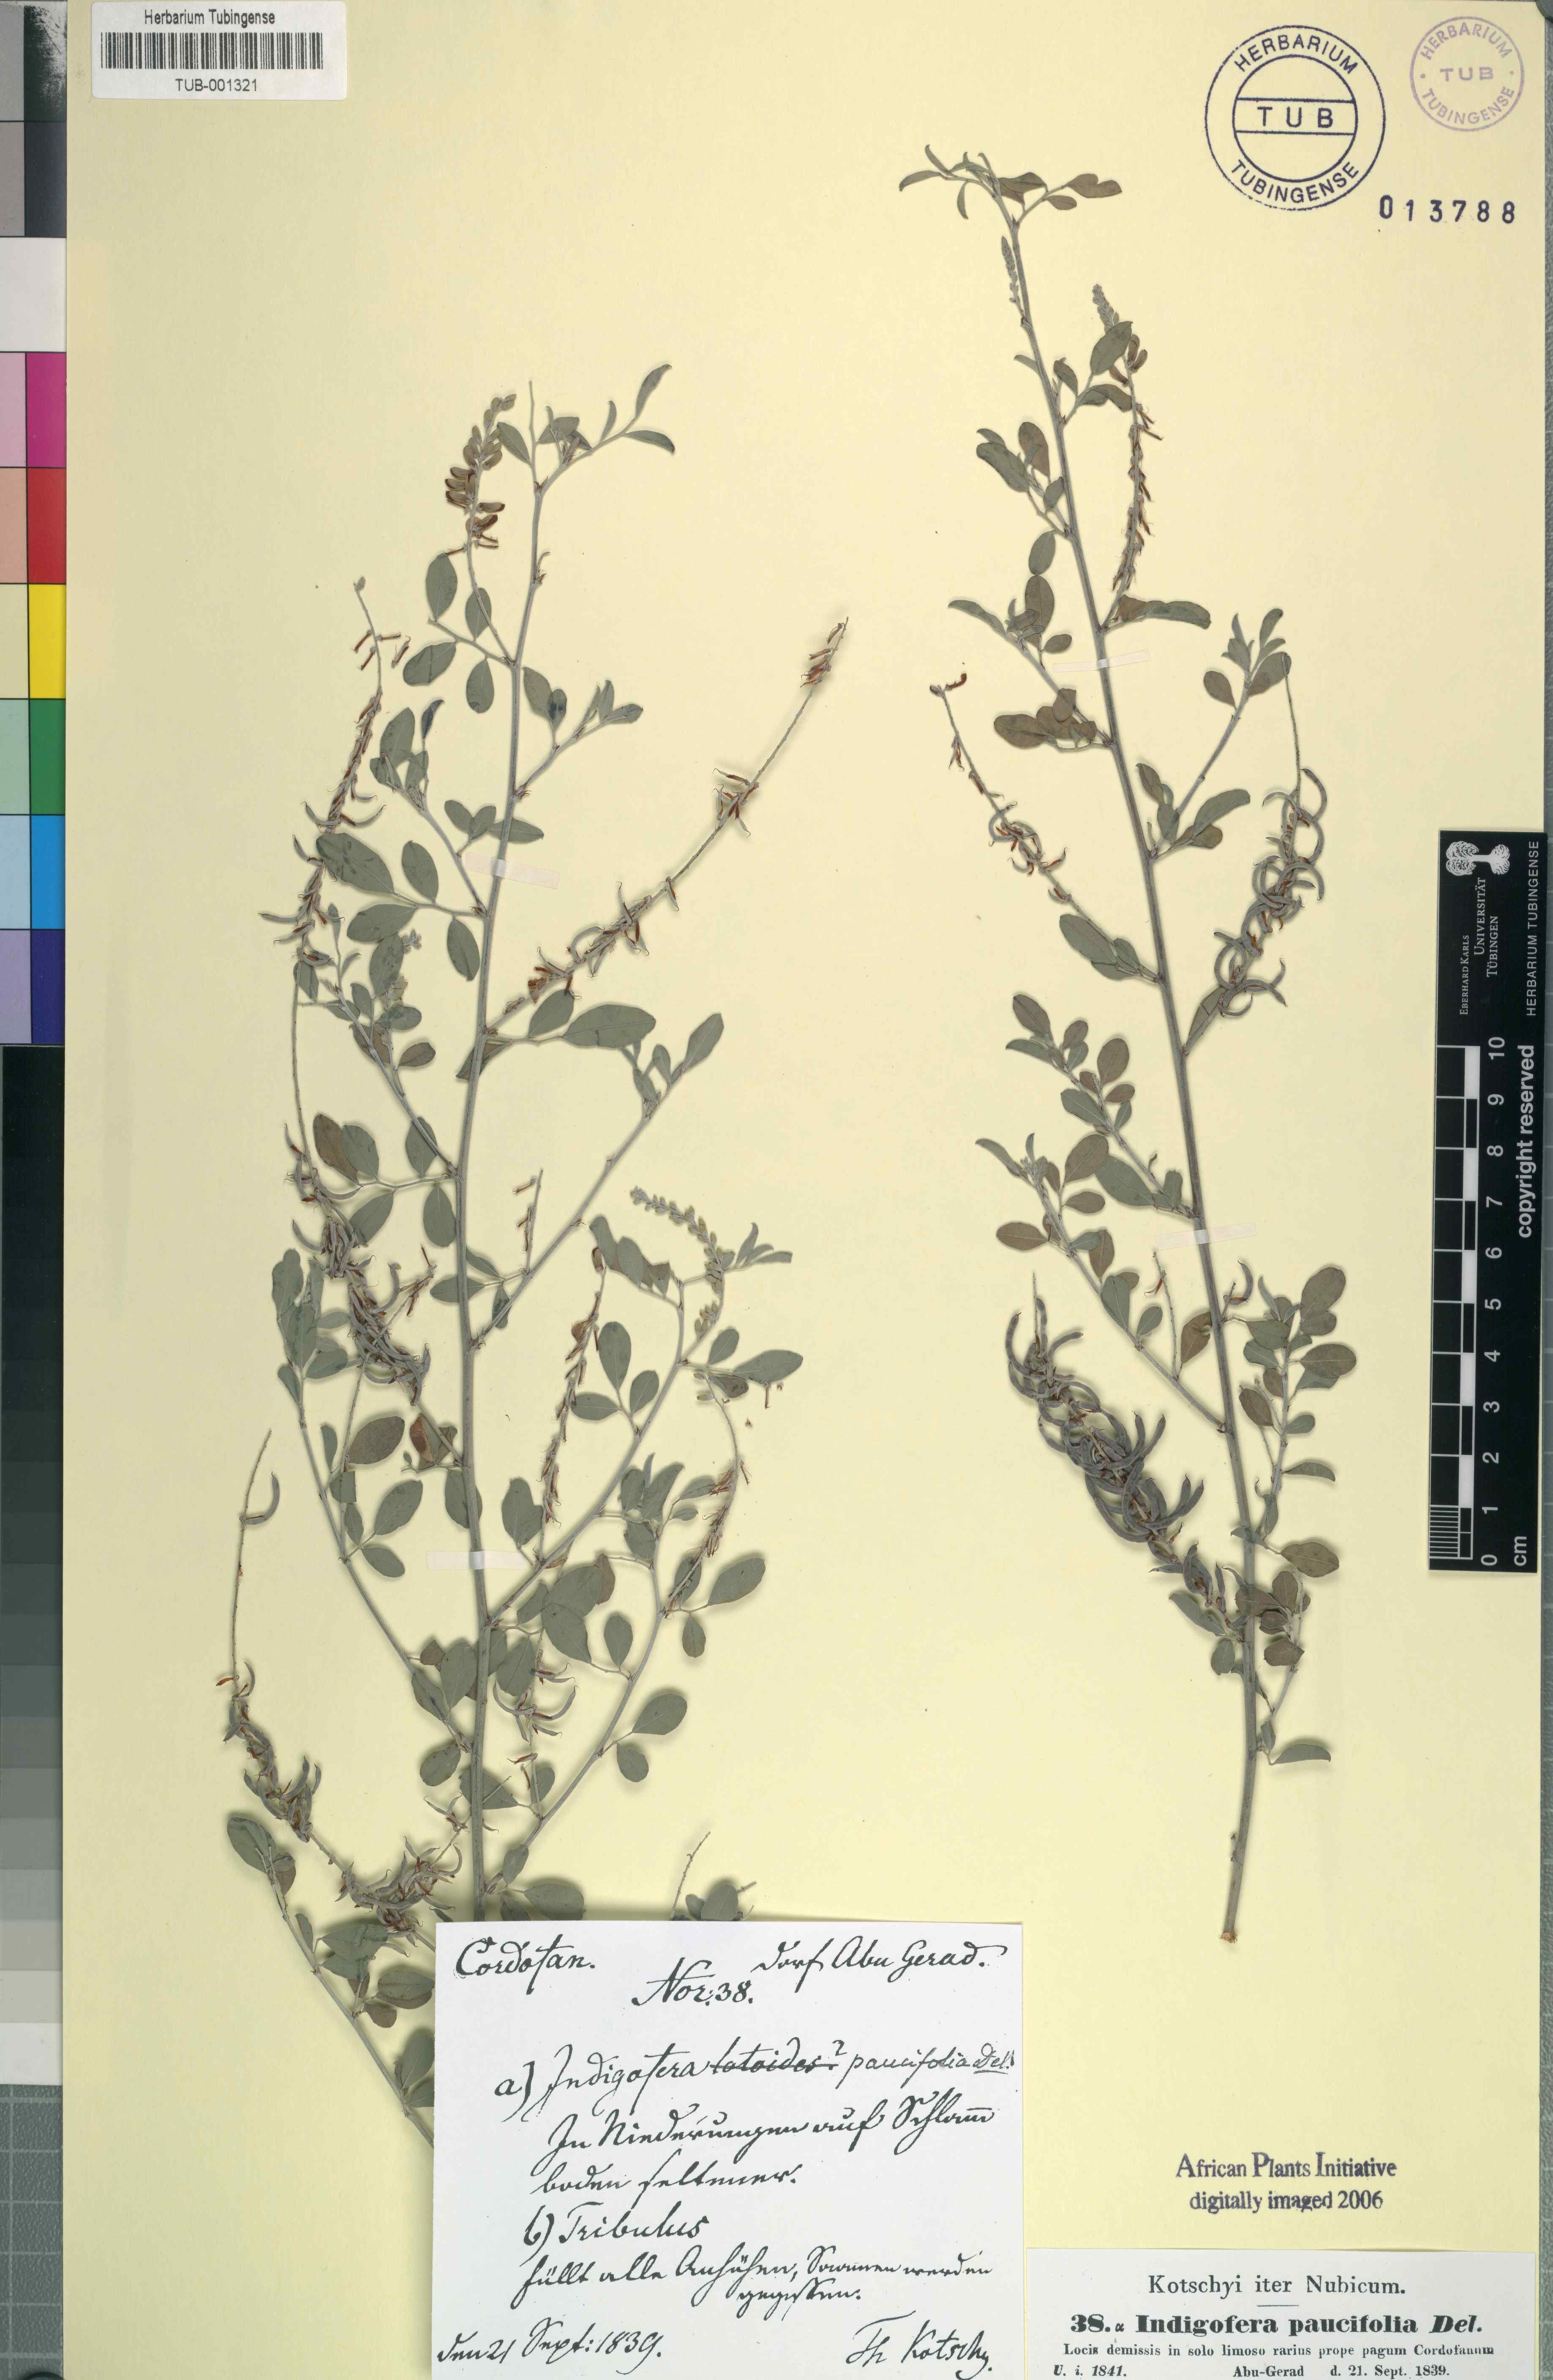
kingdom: Plantae
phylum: Tracheophyta
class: Magnoliopsida
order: Fabales
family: Fabaceae
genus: Indigofera
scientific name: Indigofera oblongifolia
